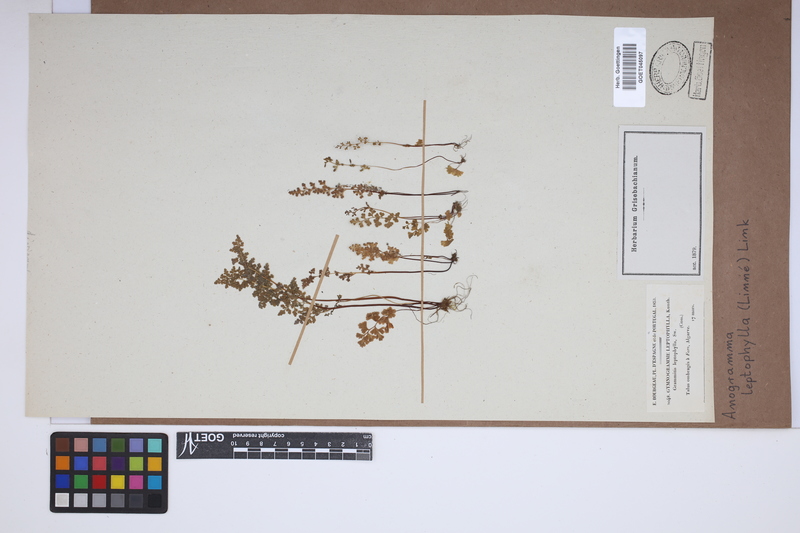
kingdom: Plantae
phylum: Tracheophyta
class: Polypodiopsida
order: Polypodiales
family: Pteridaceae
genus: Anogramma
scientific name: Anogramma leptophylla
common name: Jersey fern
